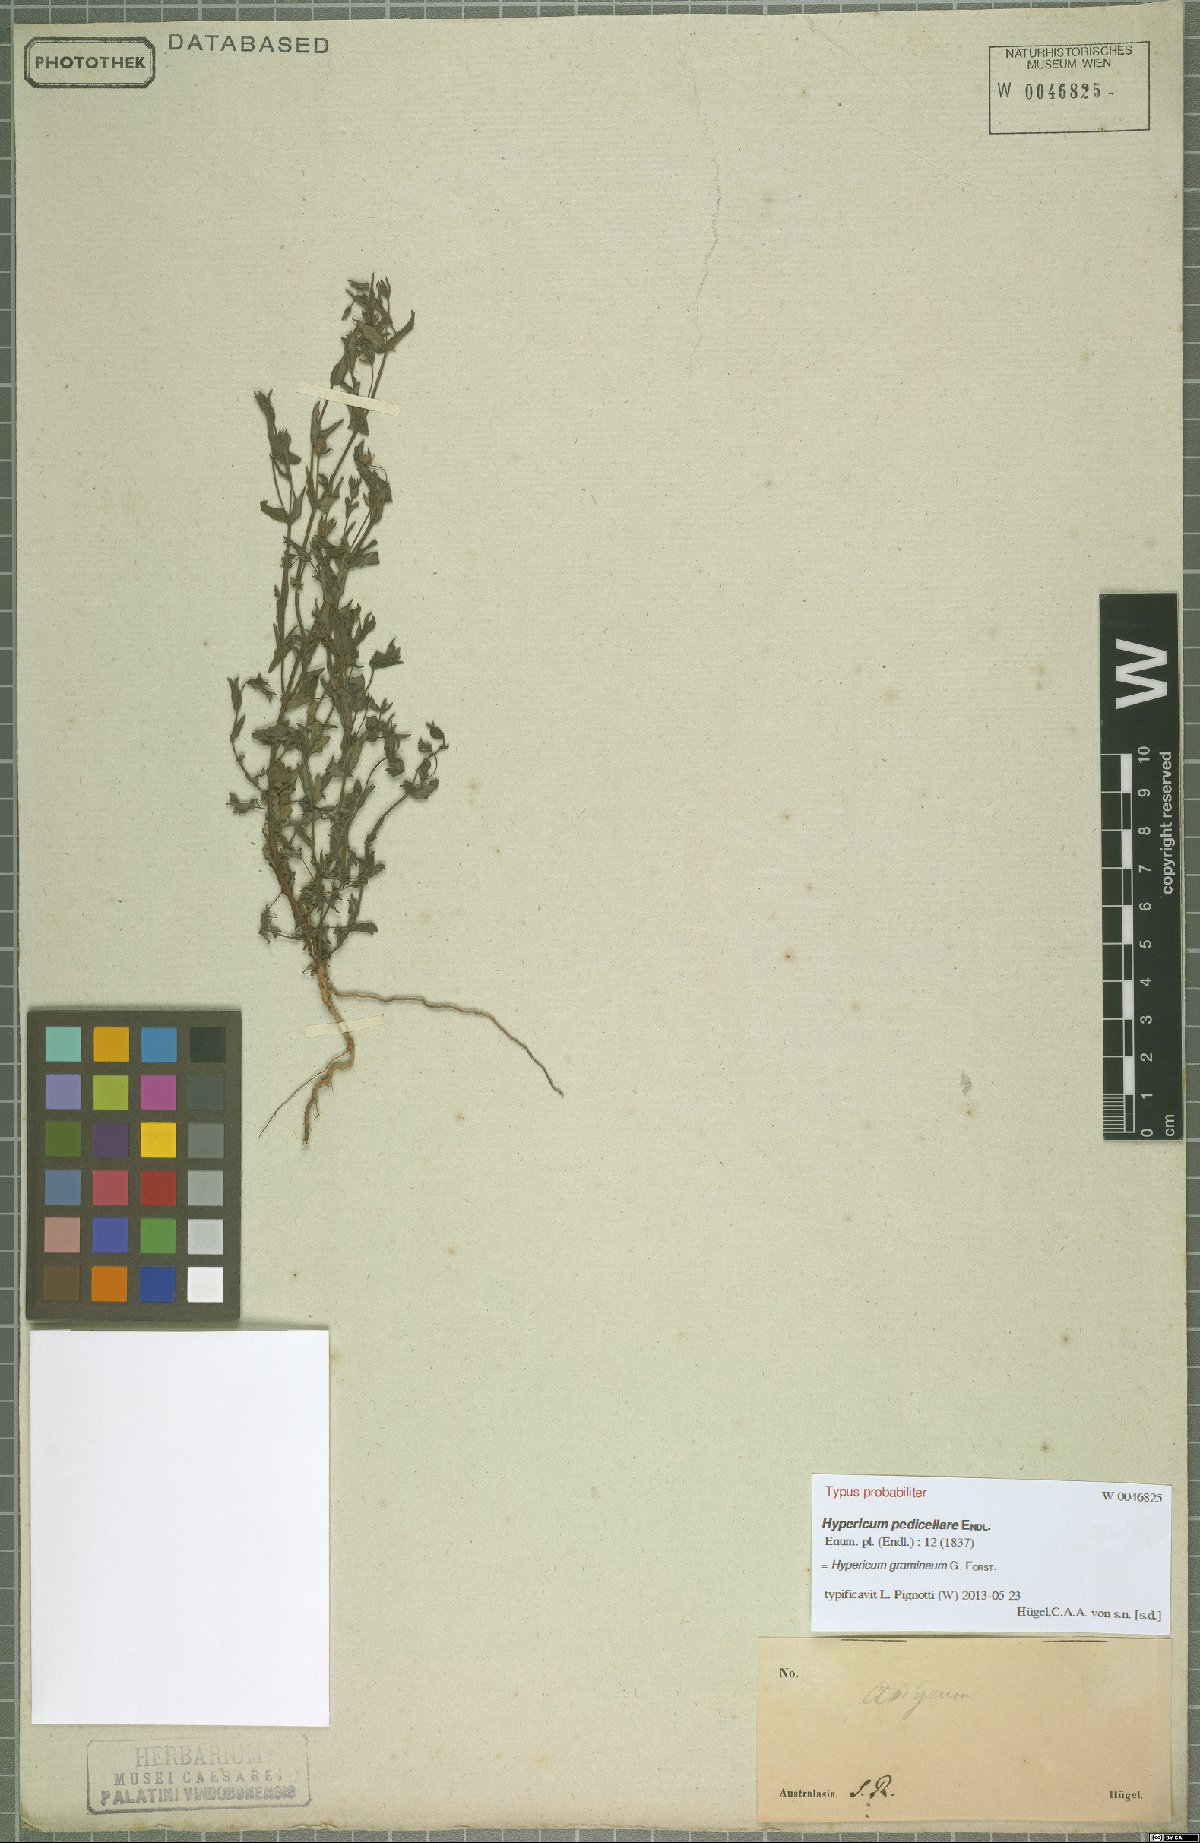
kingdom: Plantae
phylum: Tracheophyta
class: Magnoliopsida
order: Malpighiales
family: Hypericaceae
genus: Hypericum
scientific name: Hypericum gramineum
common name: Grassy st. johnswort
